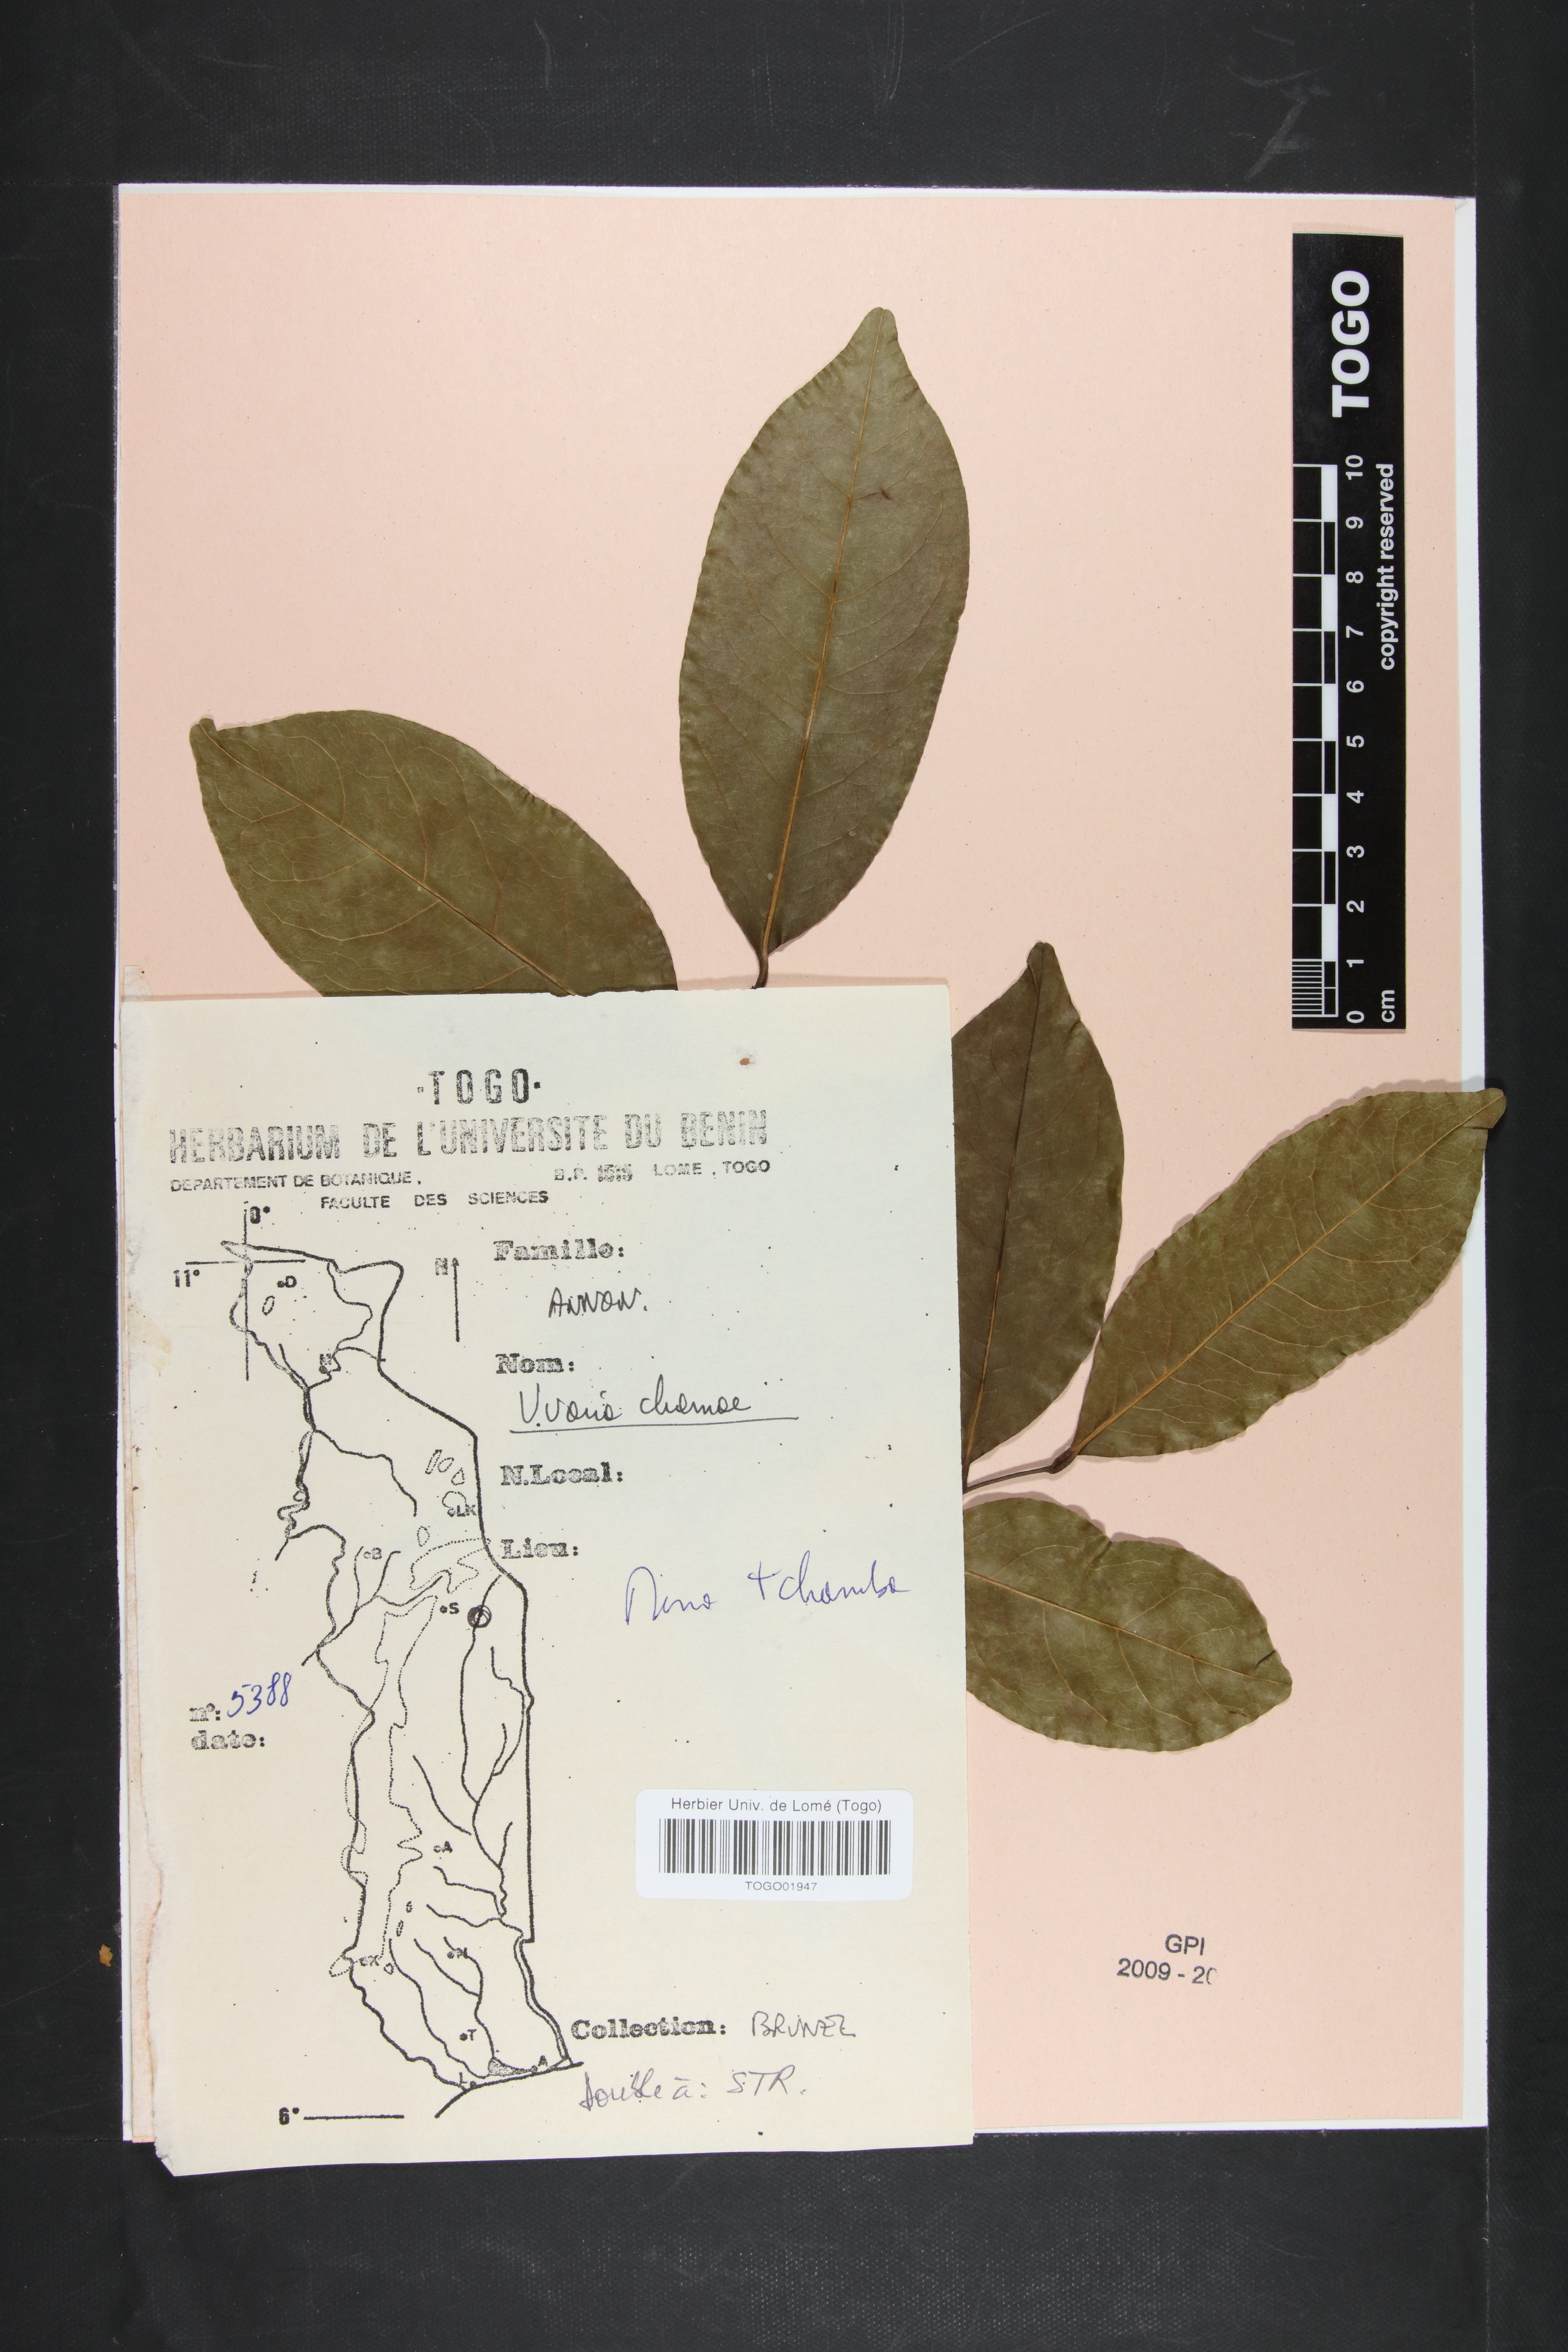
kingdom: Plantae
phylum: Tracheophyta
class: Magnoliopsida
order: Magnoliales
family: Annonaceae
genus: Uvaria
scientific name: Uvaria chamae
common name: Finger-root
